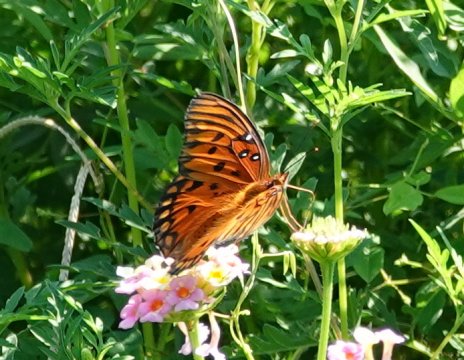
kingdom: Animalia
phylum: Arthropoda
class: Insecta
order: Lepidoptera
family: Nymphalidae
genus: Dione
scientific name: Dione vanillae
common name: Gulf Fritillary
